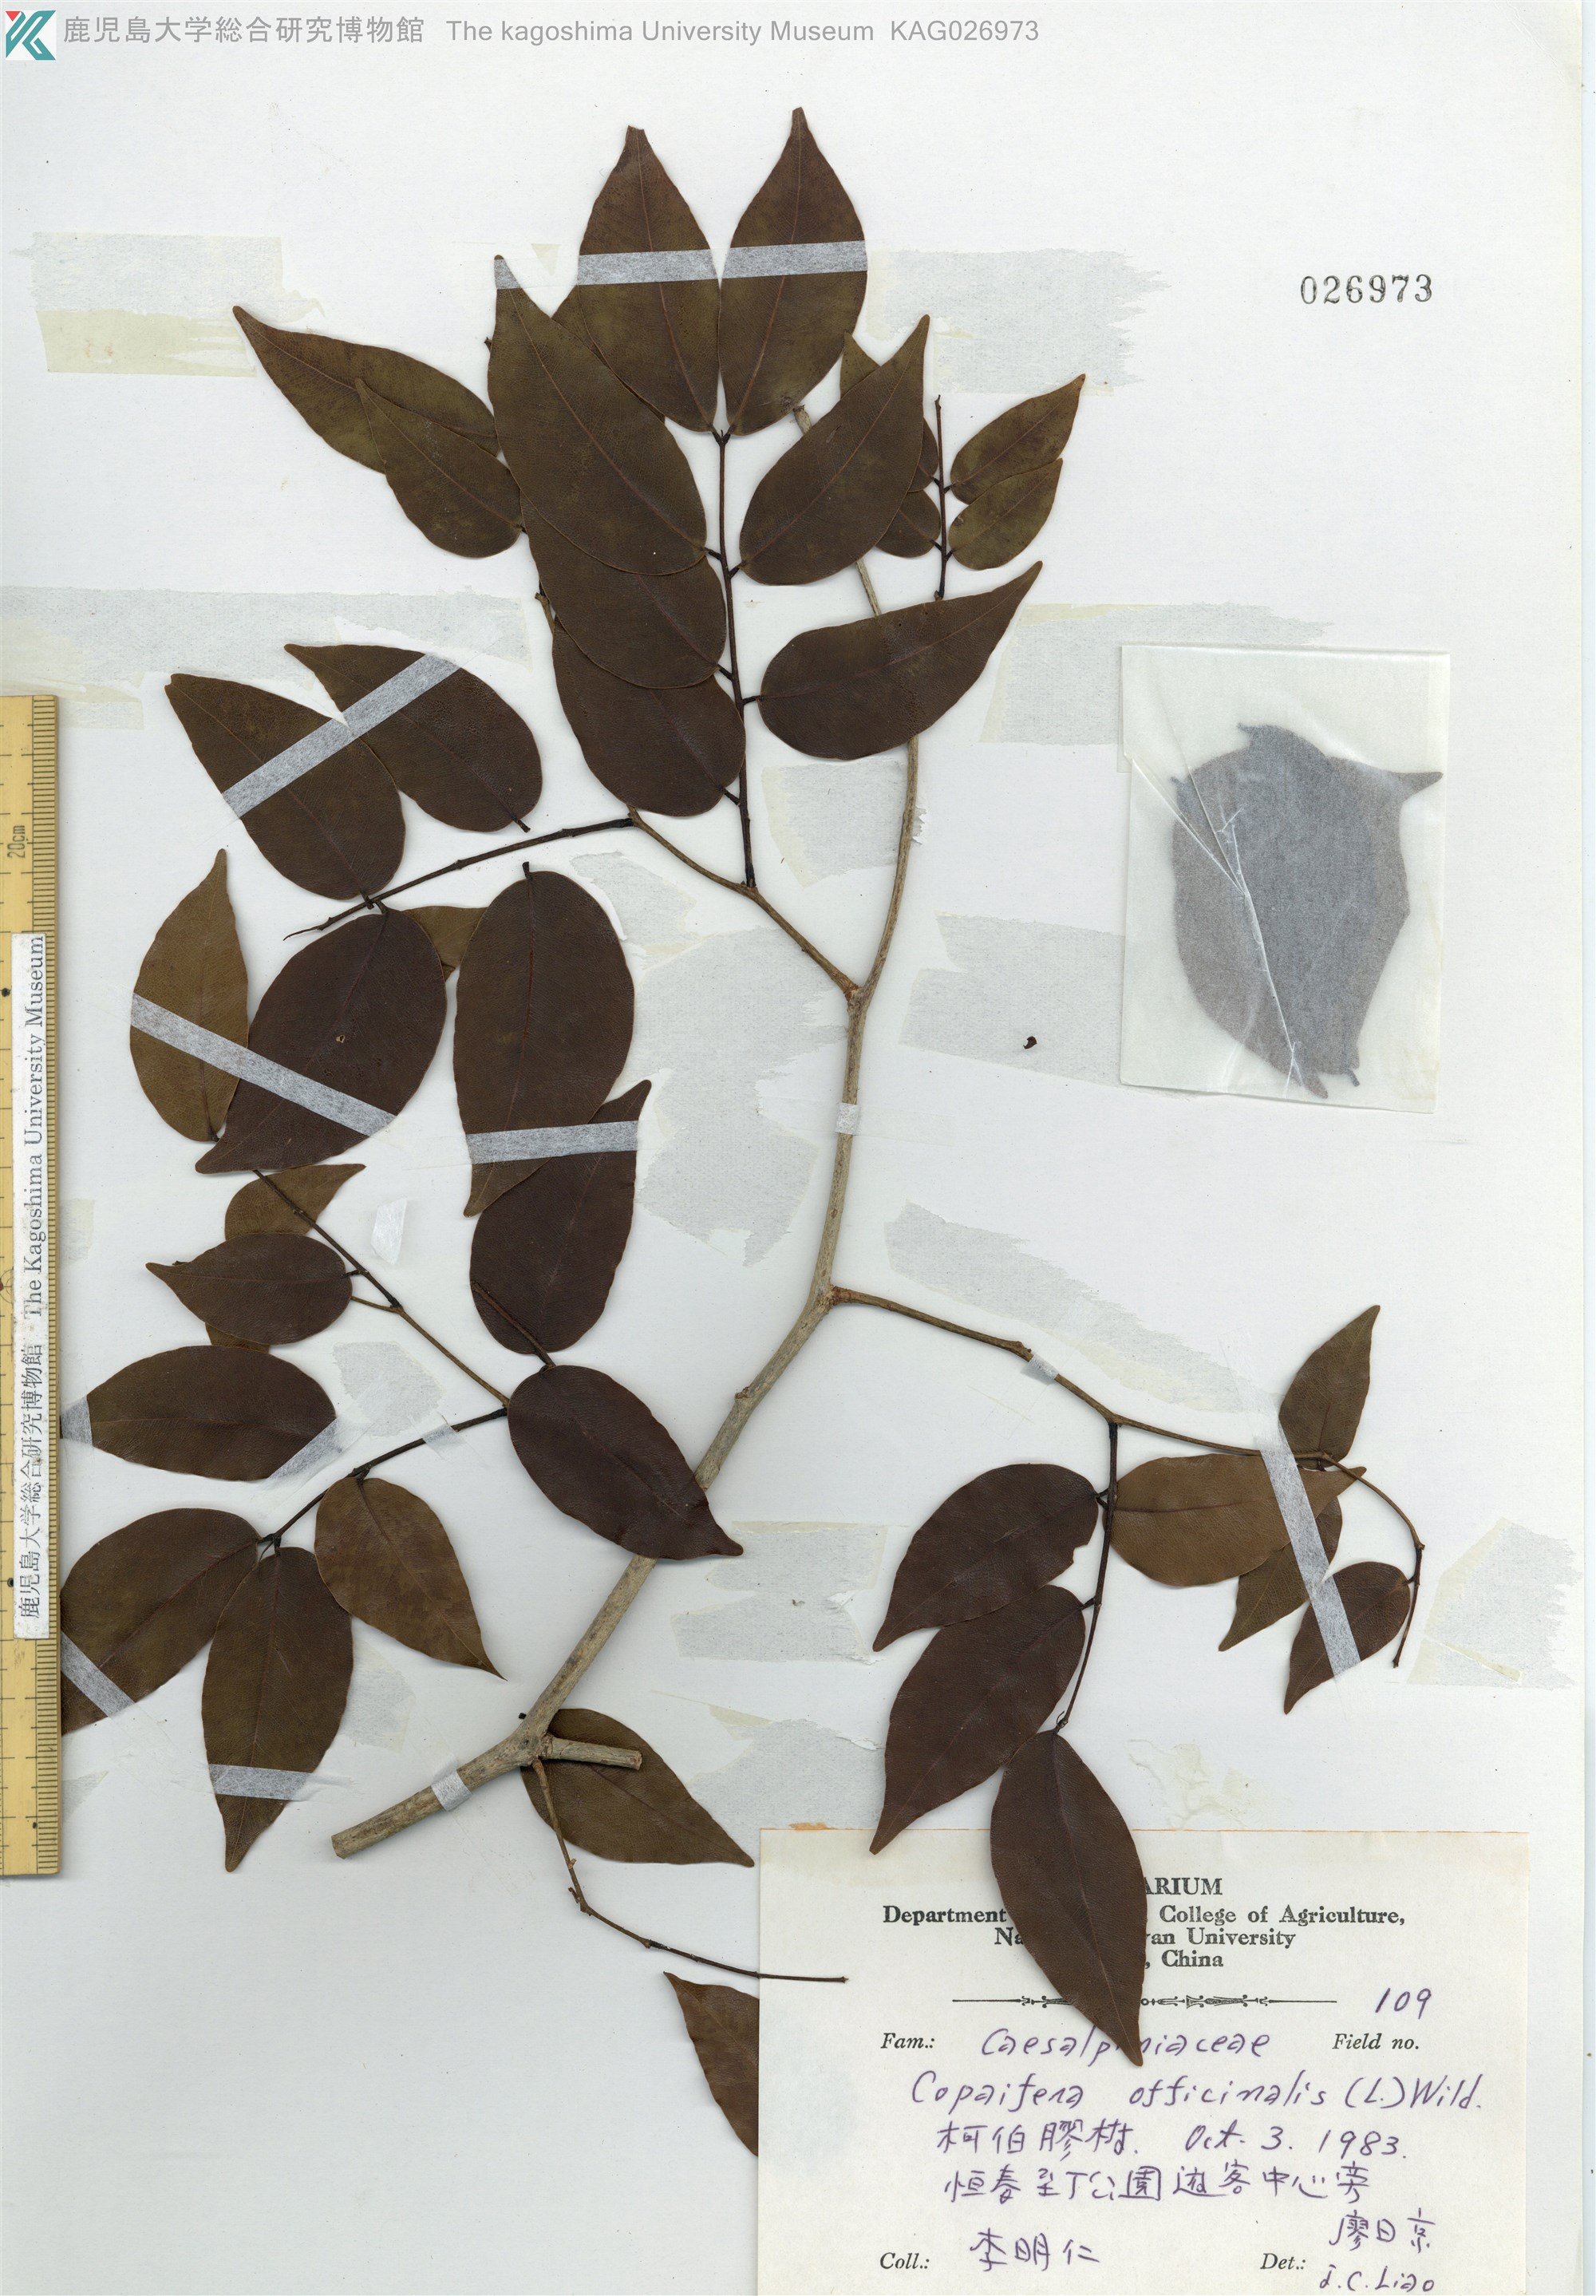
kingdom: Plantae
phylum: Tracheophyta
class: Magnoliopsida
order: Fabales
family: Fabaceae
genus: Copaifera
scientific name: Copaifera officinalis
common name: Copaiba
